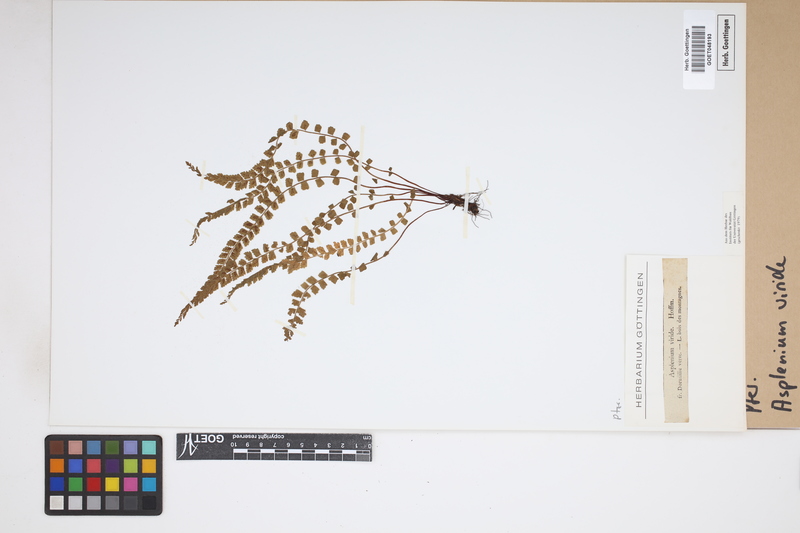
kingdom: Plantae
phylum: Tracheophyta
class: Polypodiopsida
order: Polypodiales
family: Aspleniaceae
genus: Asplenium
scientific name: Asplenium viride
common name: Green spleenwort
